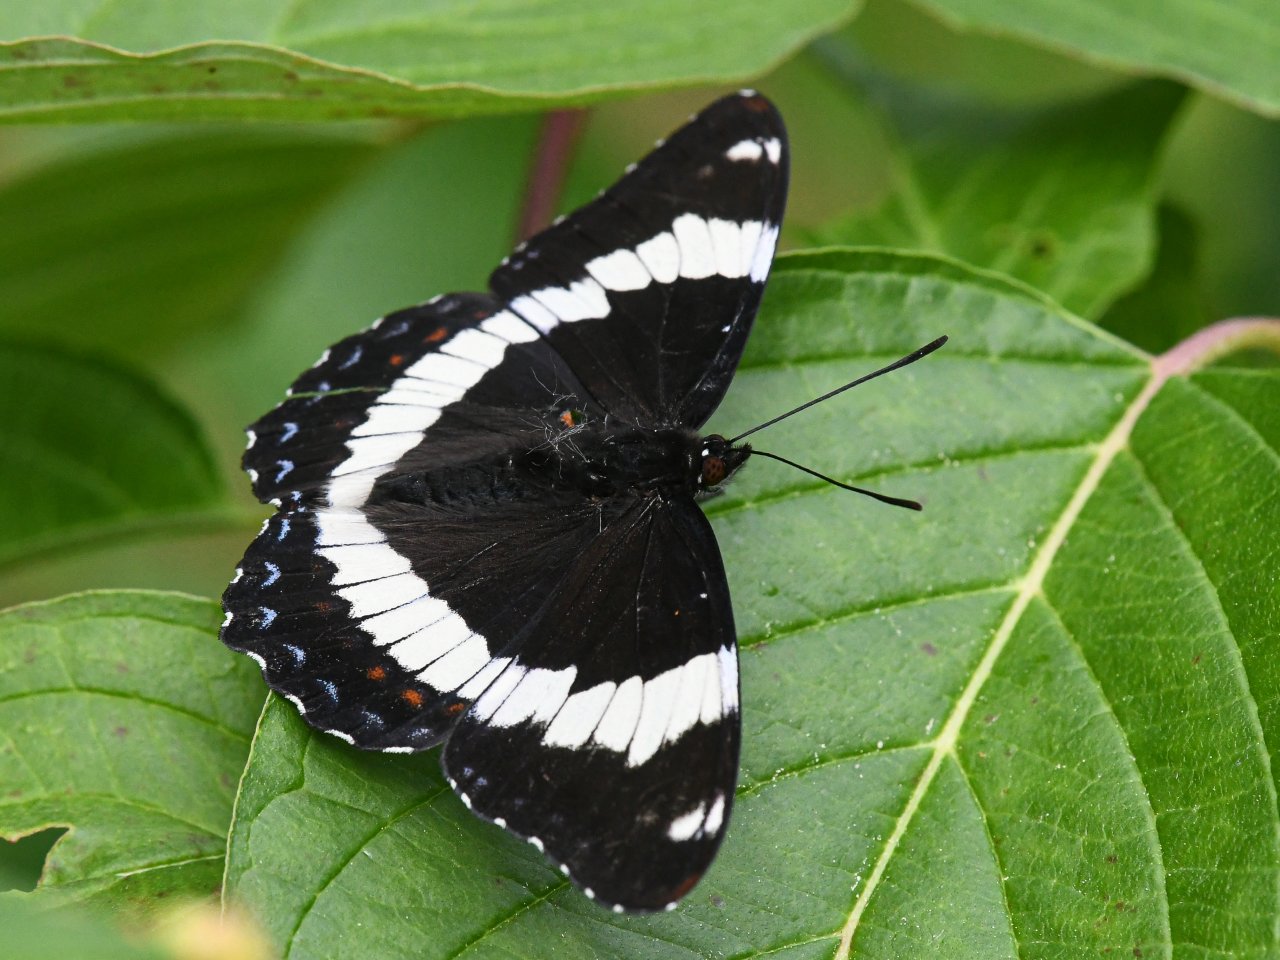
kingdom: Animalia
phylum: Arthropoda
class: Insecta
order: Lepidoptera
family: Nymphalidae
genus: Limenitis
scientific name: Limenitis arthemis
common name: Red-spotted Admiral
